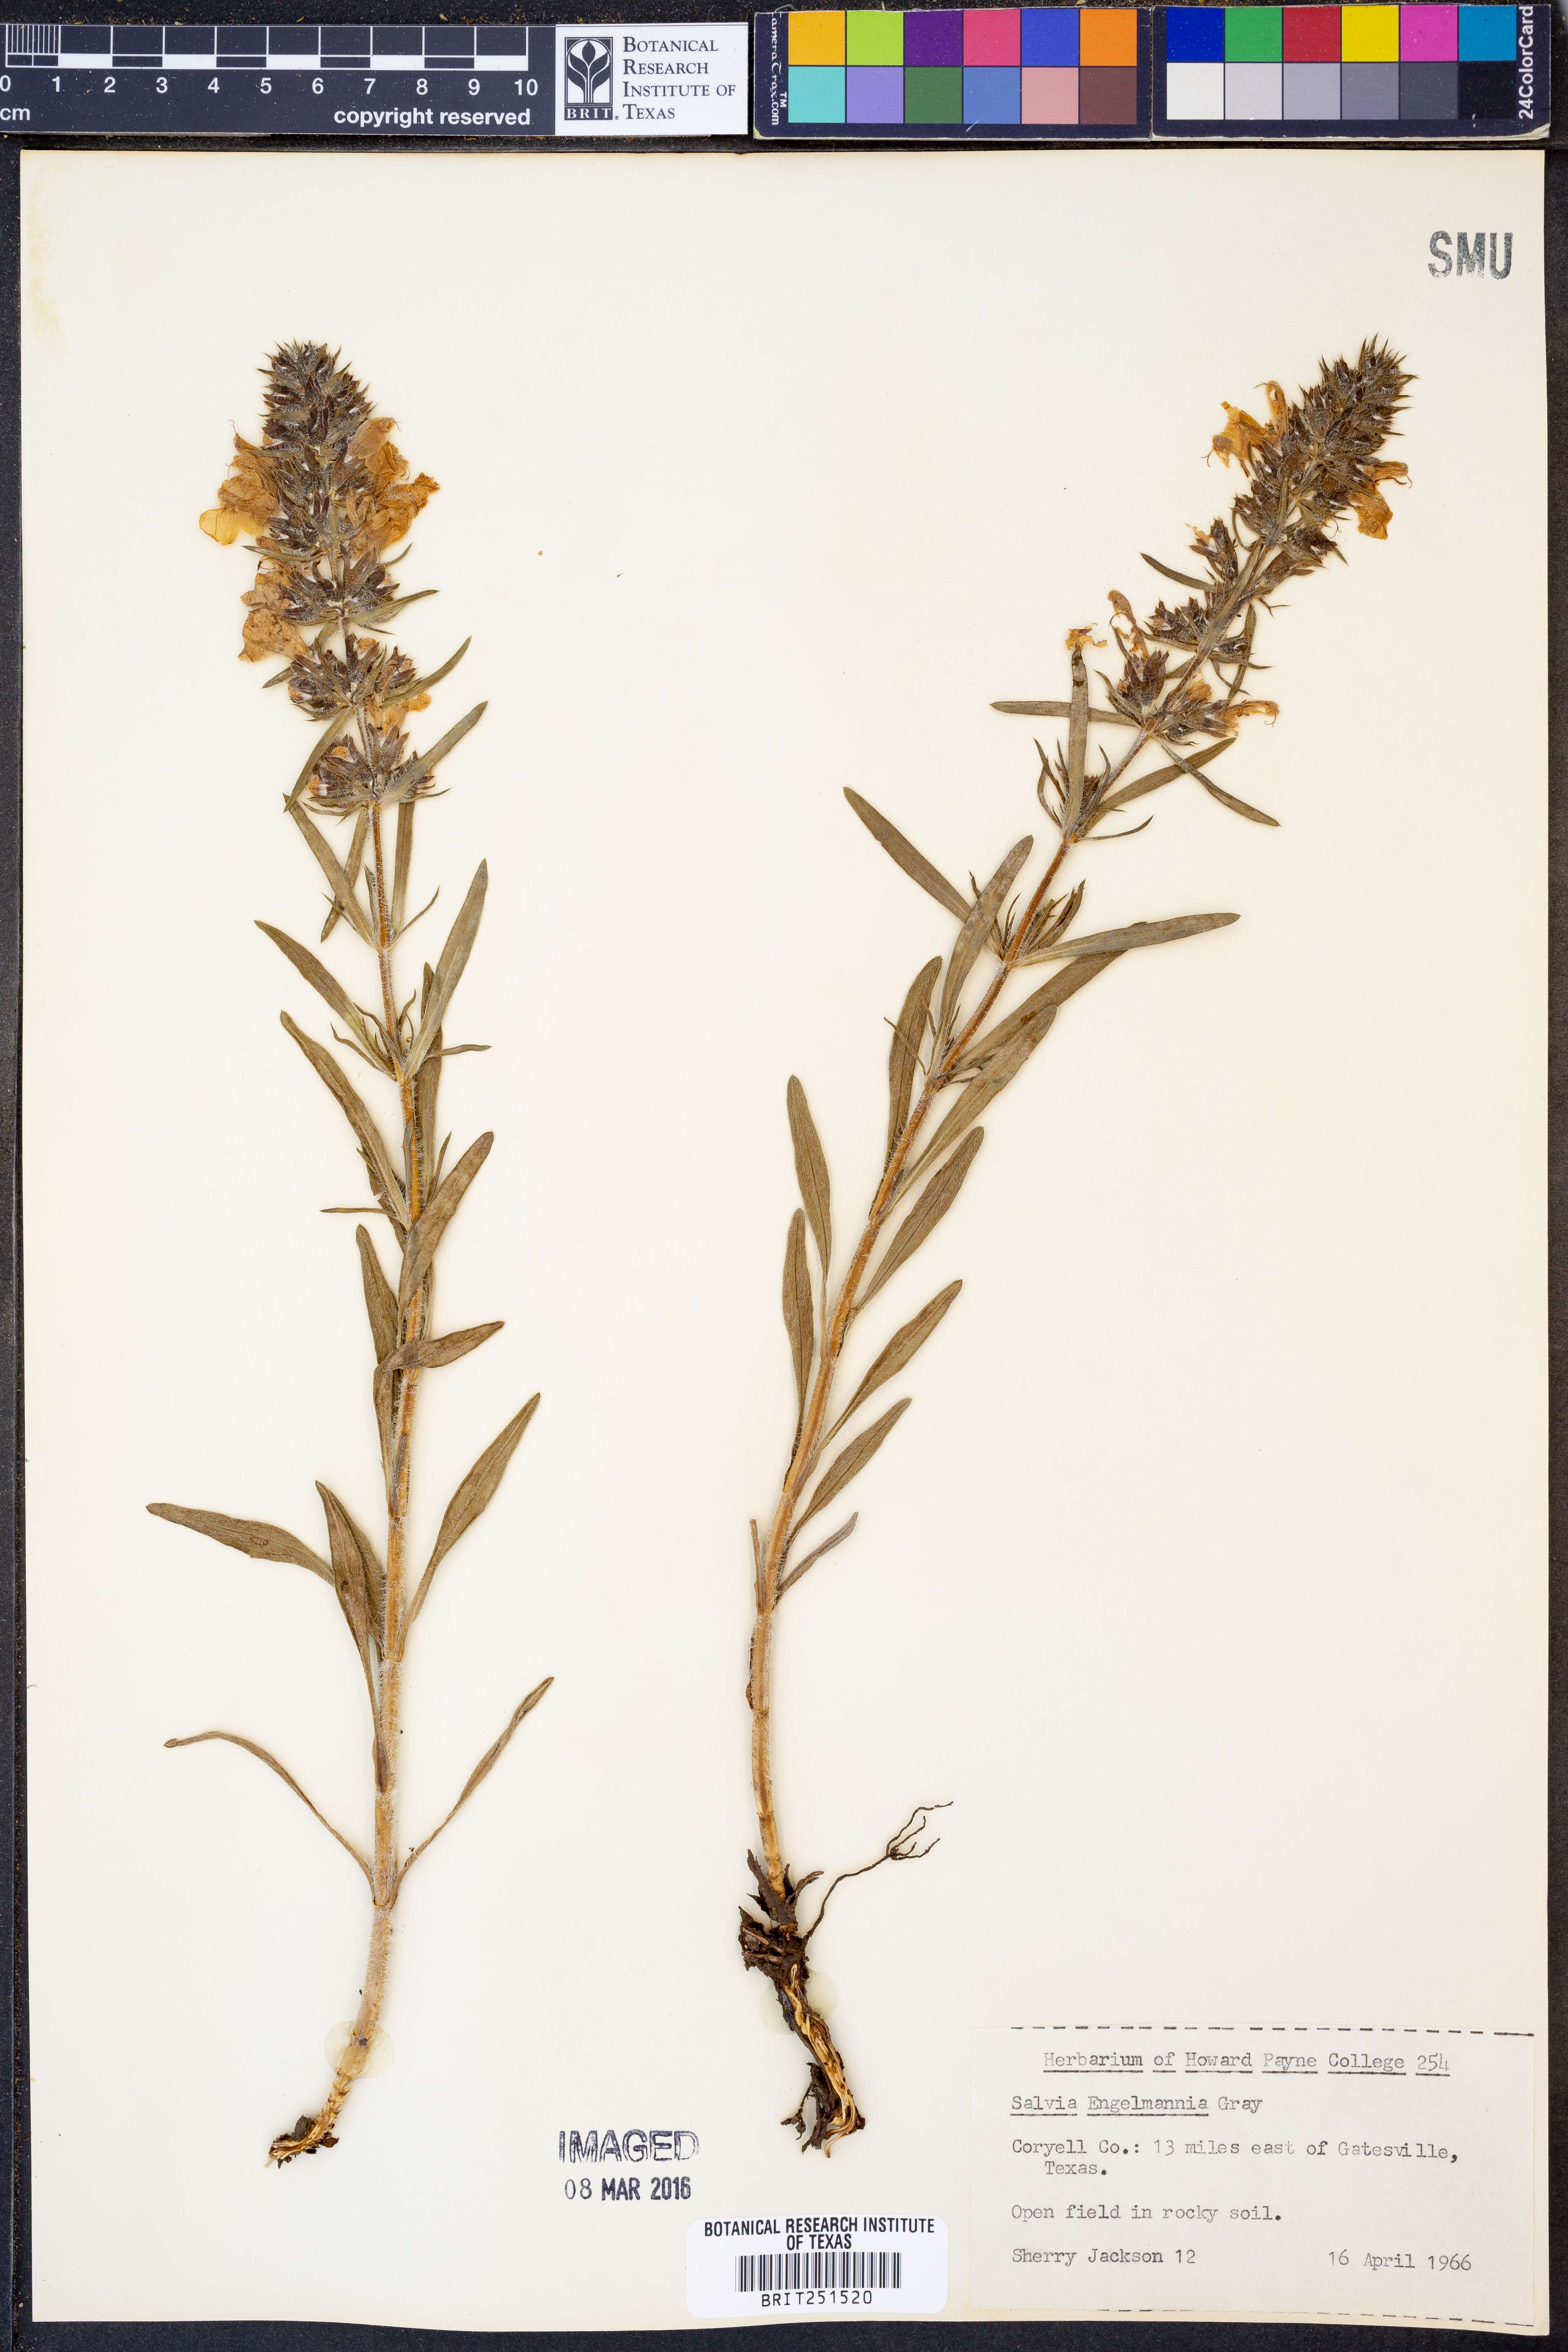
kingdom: Plantae
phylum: Tracheophyta
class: Magnoliopsida
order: Lamiales
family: Lamiaceae
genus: Salvia
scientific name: Salvia engelmannii
